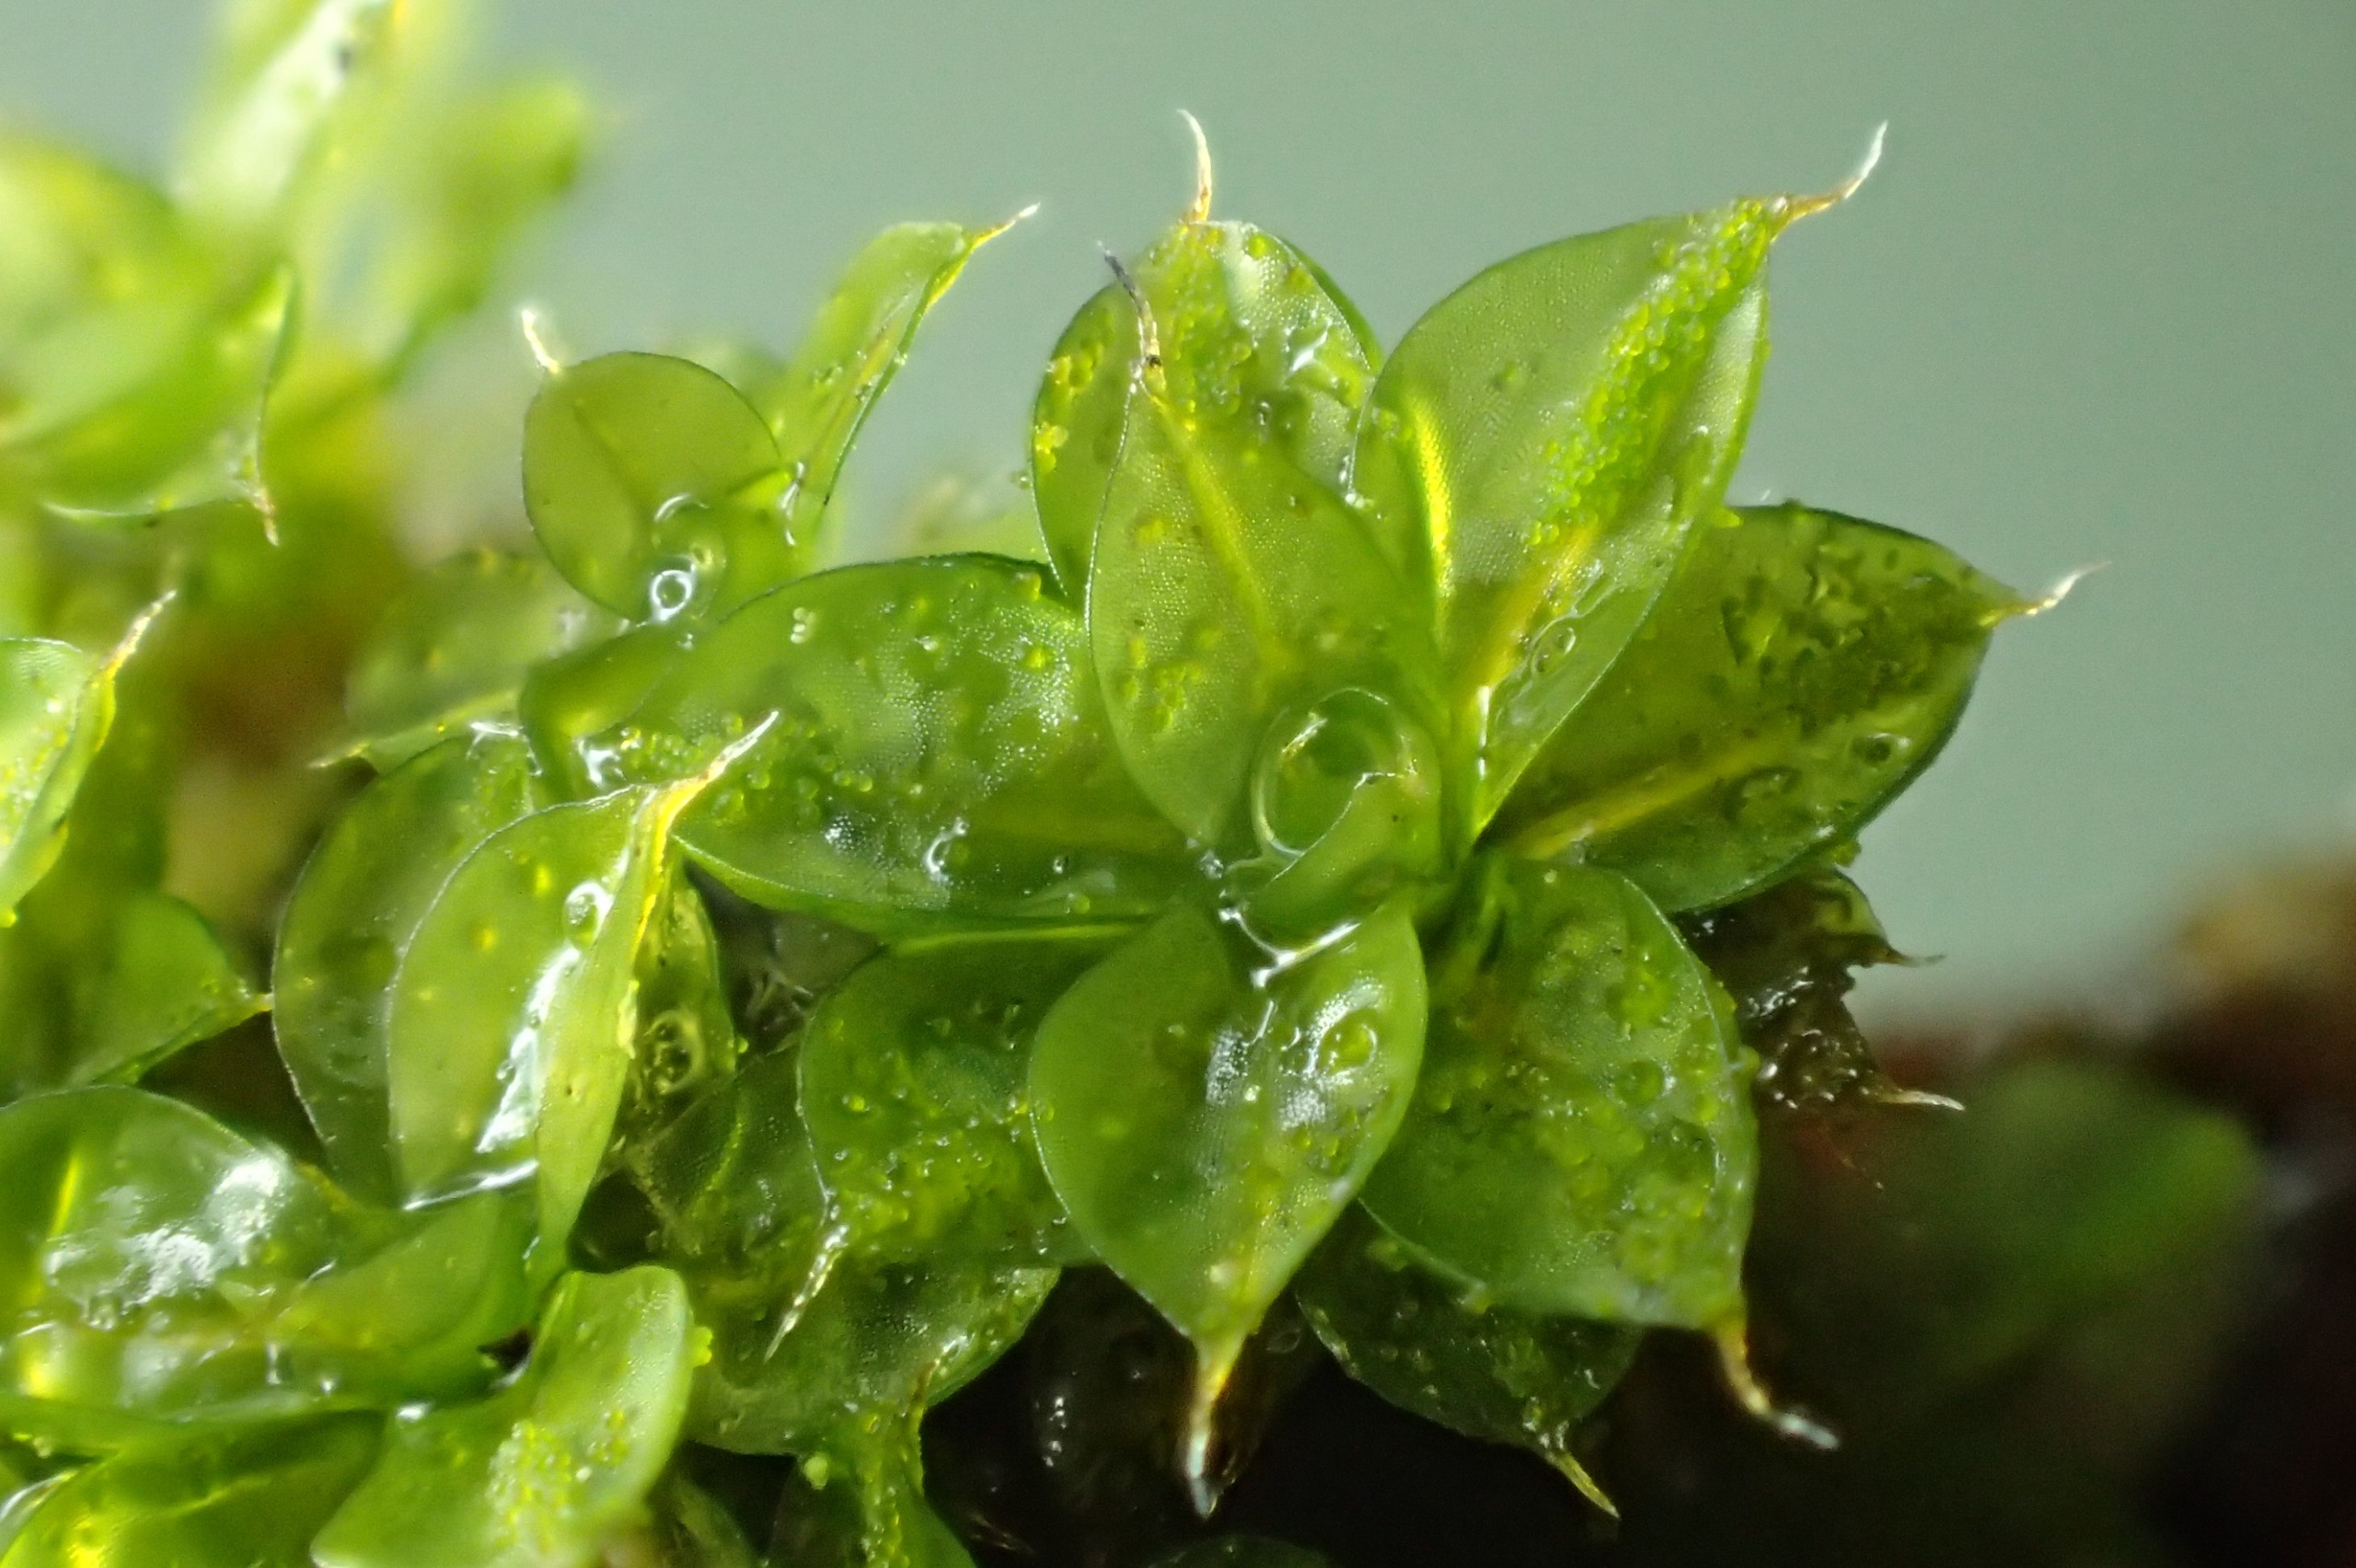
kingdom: Plantae
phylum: Bryophyta
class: Bryopsida
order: Pottiales
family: Pottiaceae
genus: Syntrichia
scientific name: Syntrichia papillosa
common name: Bark-hårstjerne
